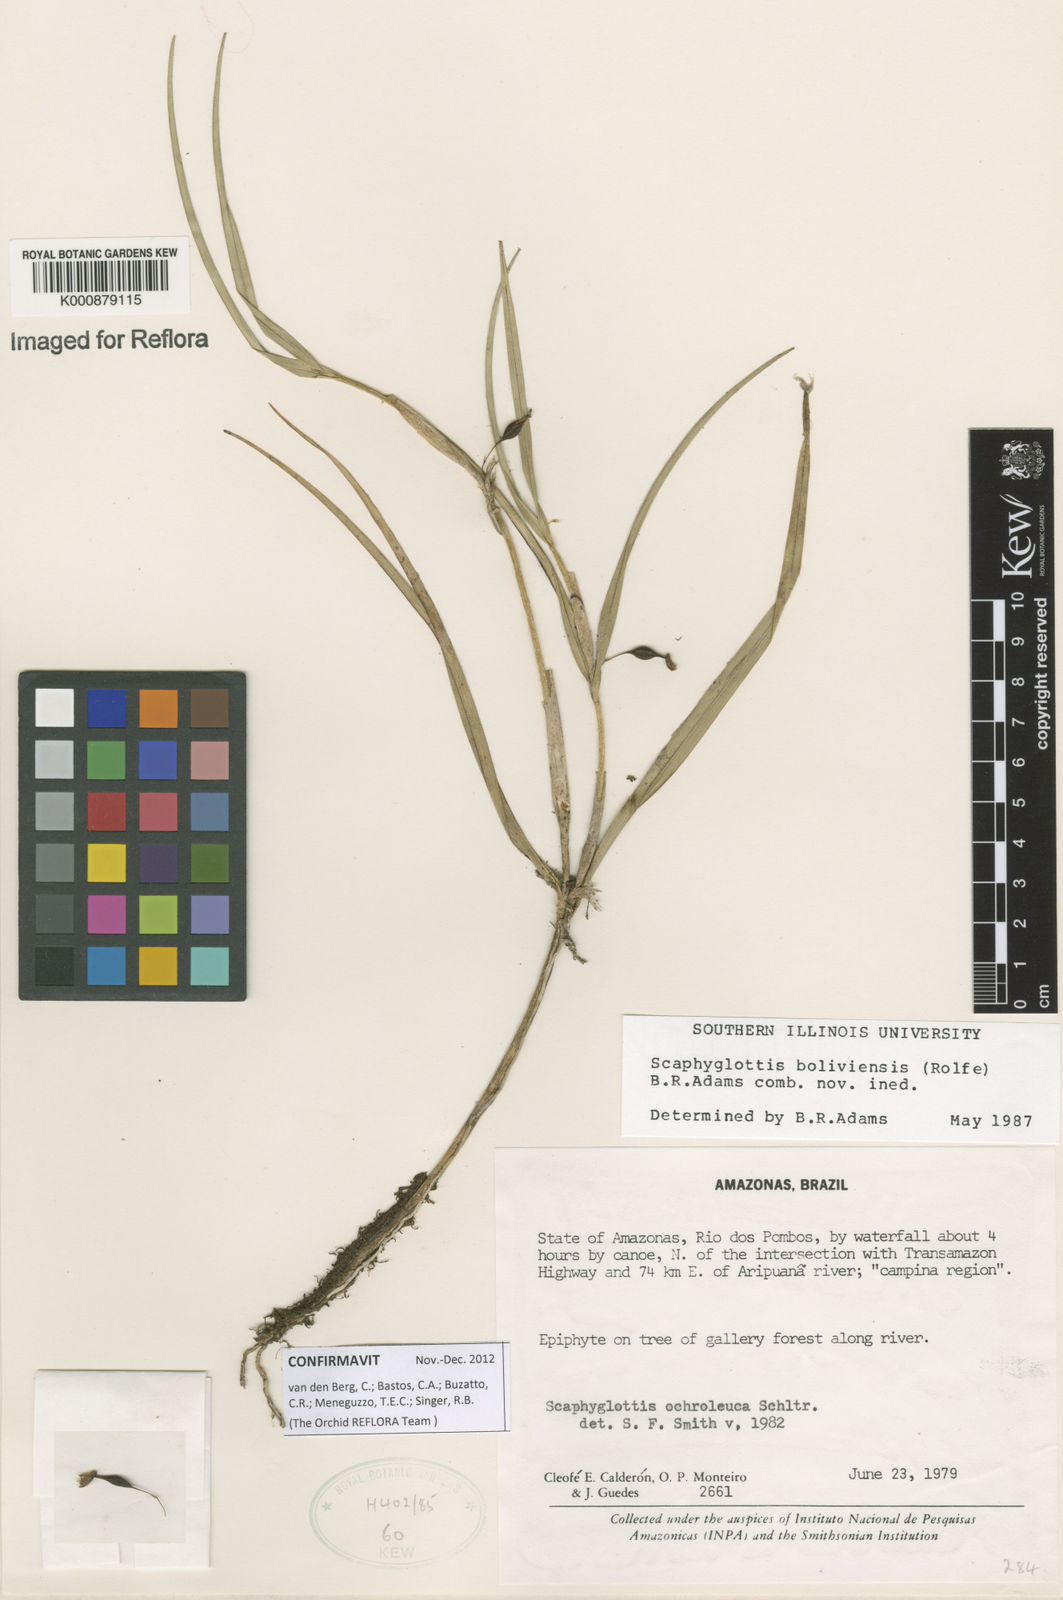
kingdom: Plantae
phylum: Tracheophyta
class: Liliopsida
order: Asparagales
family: Orchidaceae
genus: Scaphyglottis
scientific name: Scaphyglottis boliviensis
